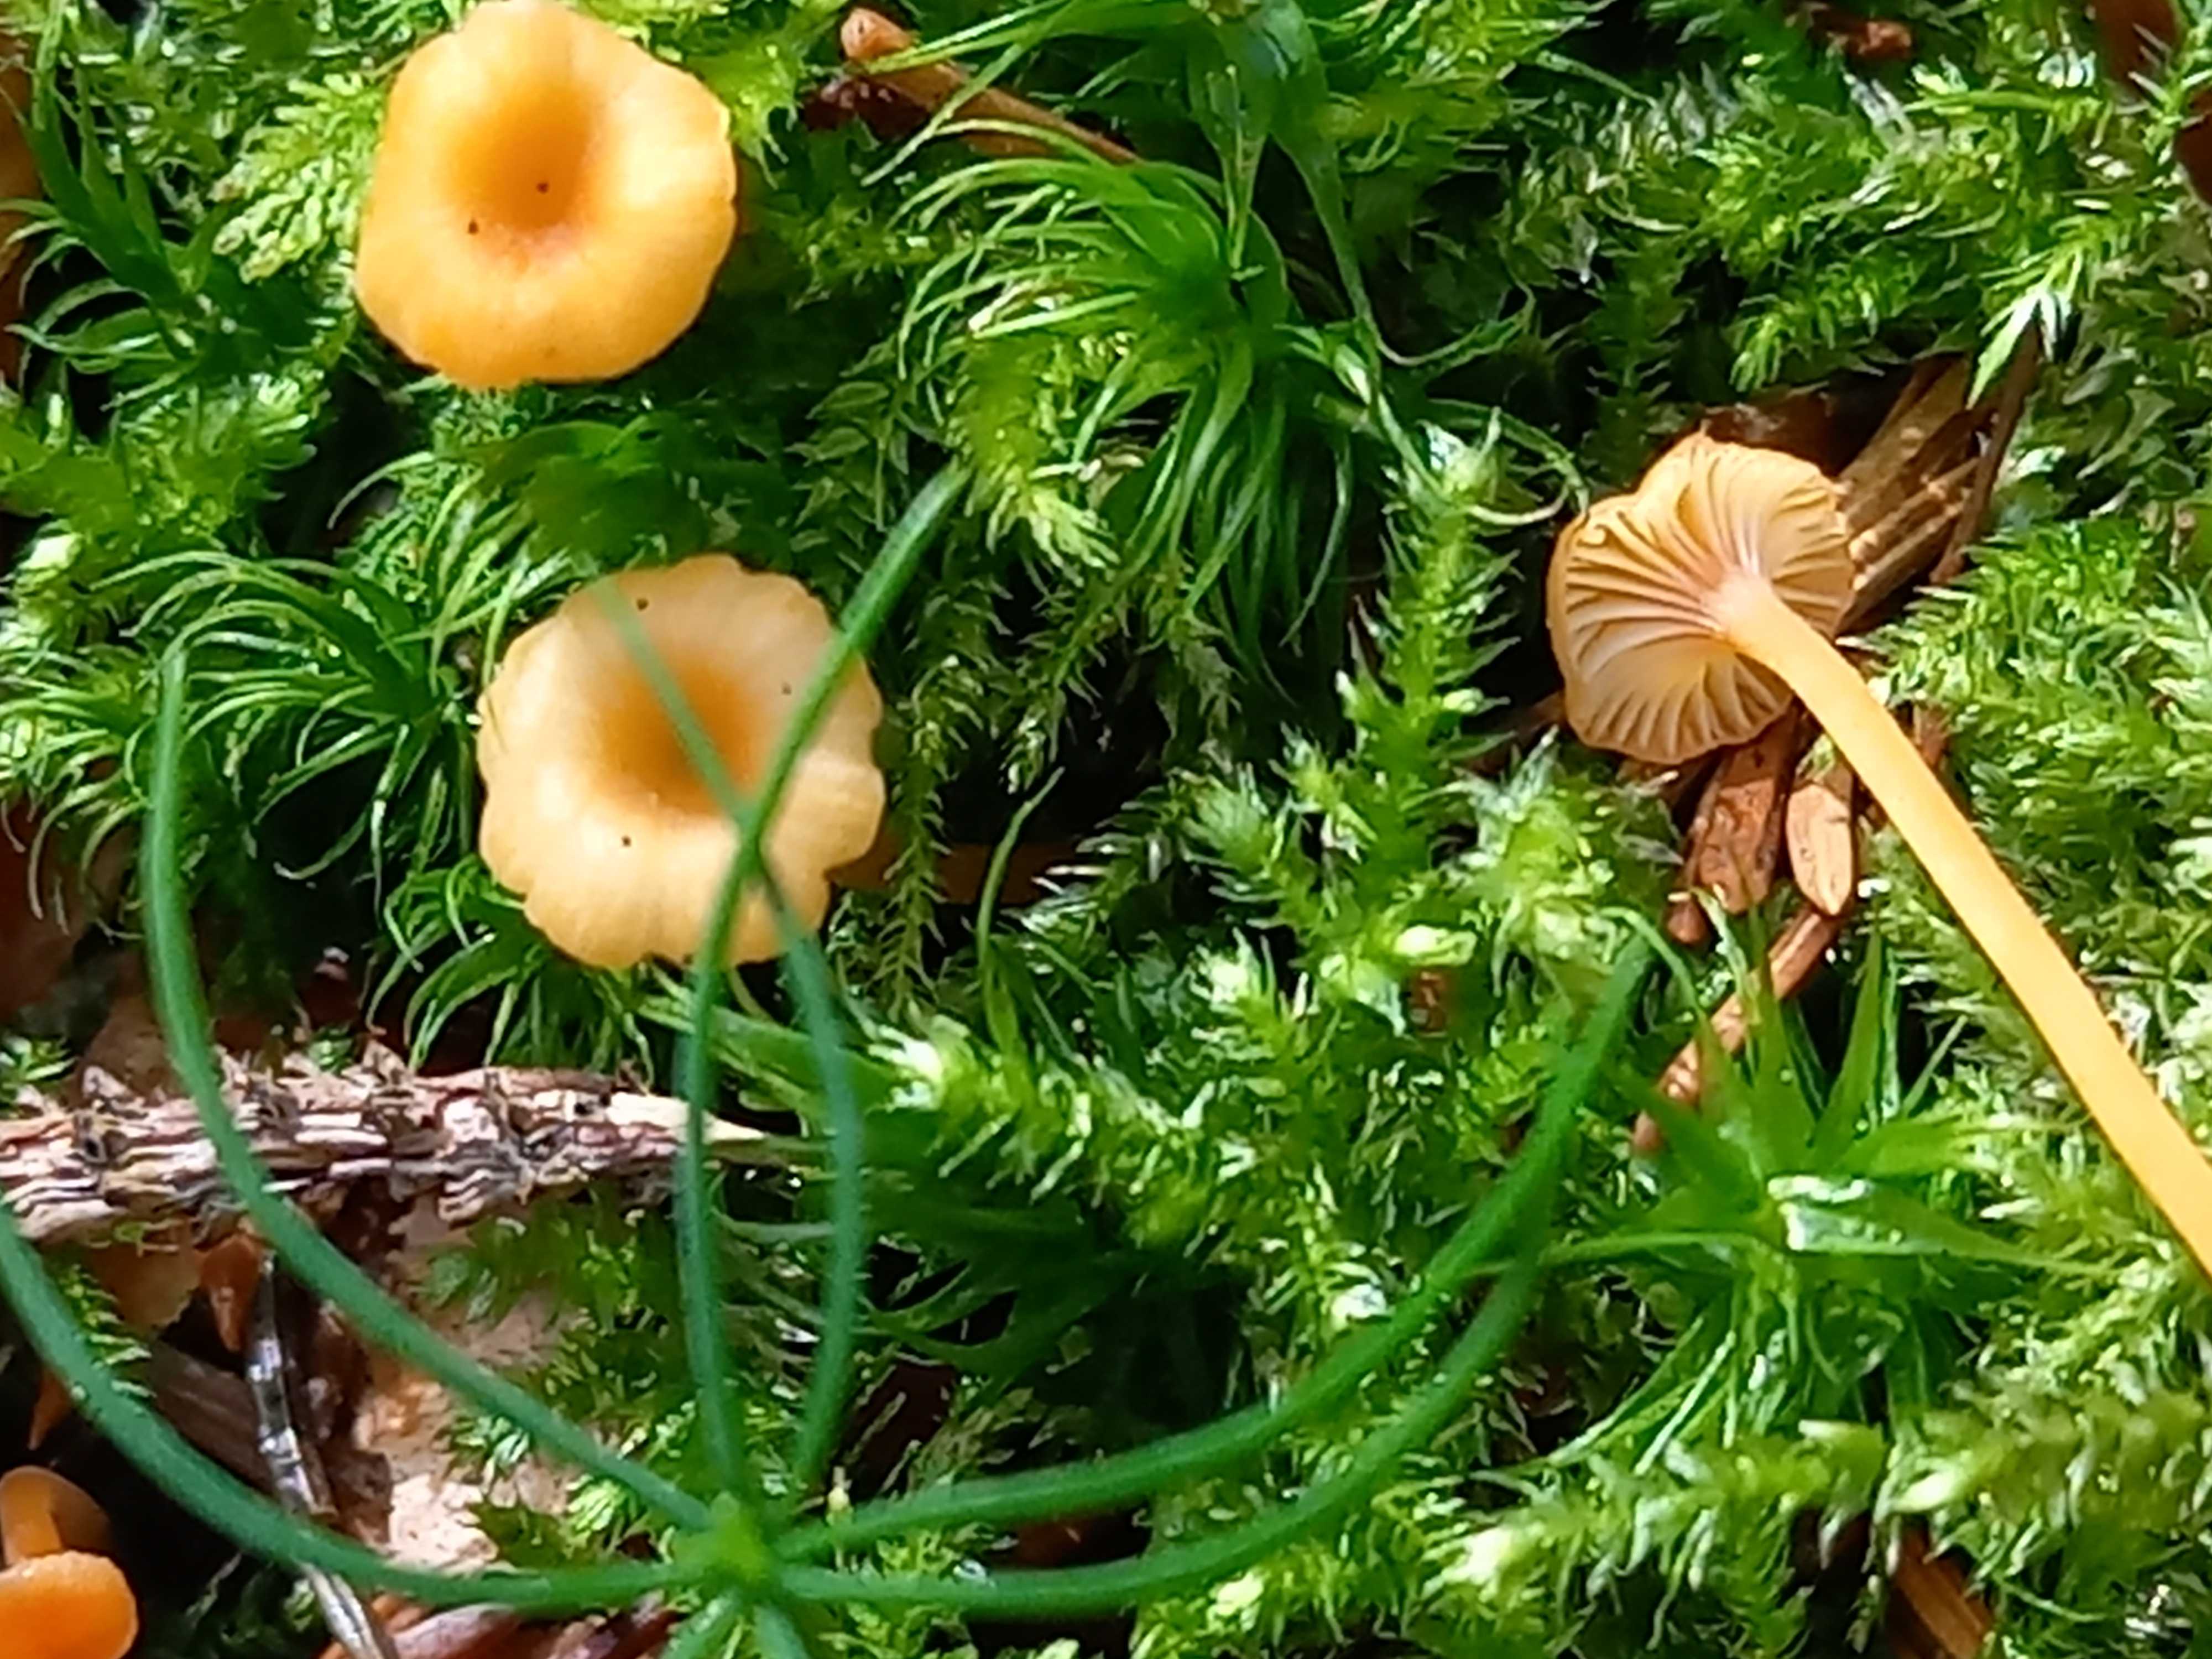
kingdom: Fungi
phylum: Basidiomycota
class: Agaricomycetes
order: Hymenochaetales
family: Rickenellaceae
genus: Rickenella
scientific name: Rickenella fibula
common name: orange mosnavlehat
